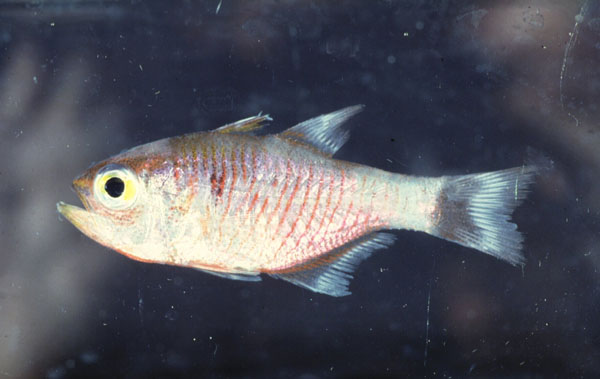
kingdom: Animalia
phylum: Chordata
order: Perciformes
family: Apogonidae
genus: Taeniamia
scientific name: Taeniamia fucata
